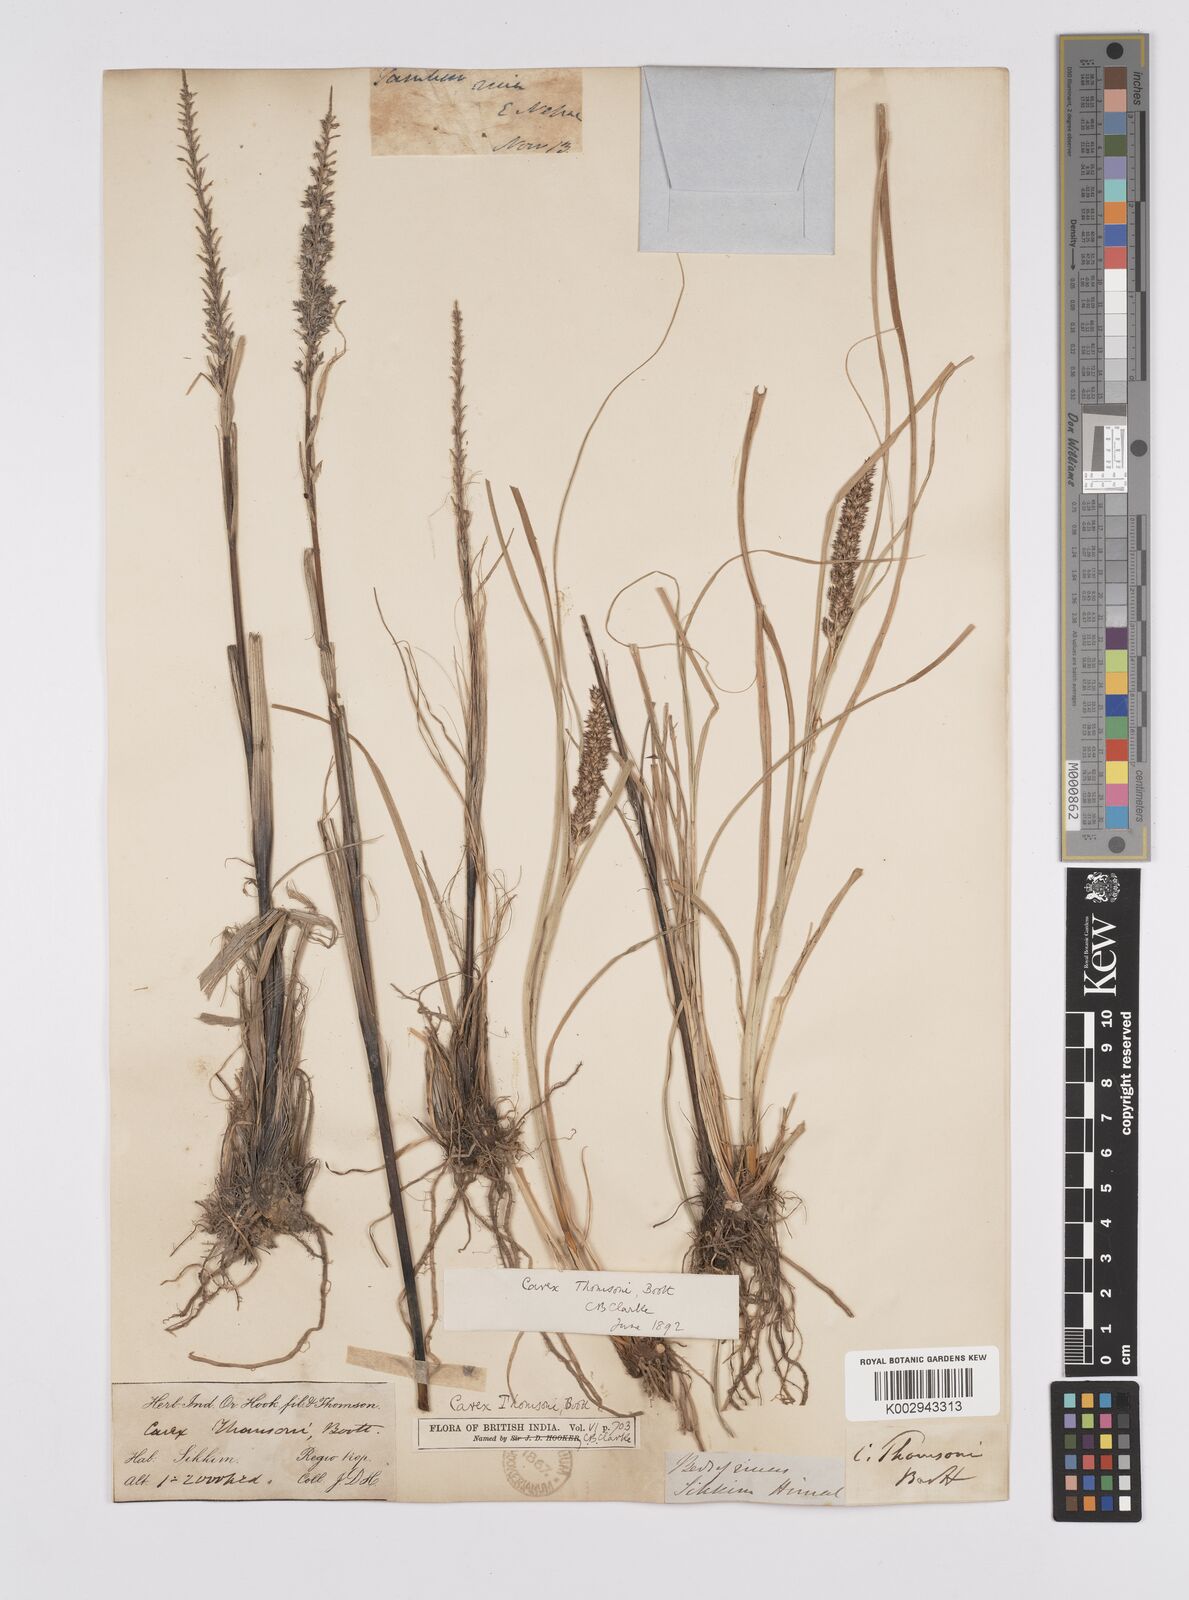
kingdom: Plantae
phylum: Tracheophyta
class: Liliopsida
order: Poales
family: Cyperaceae
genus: Carex
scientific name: Carex thomsonii
